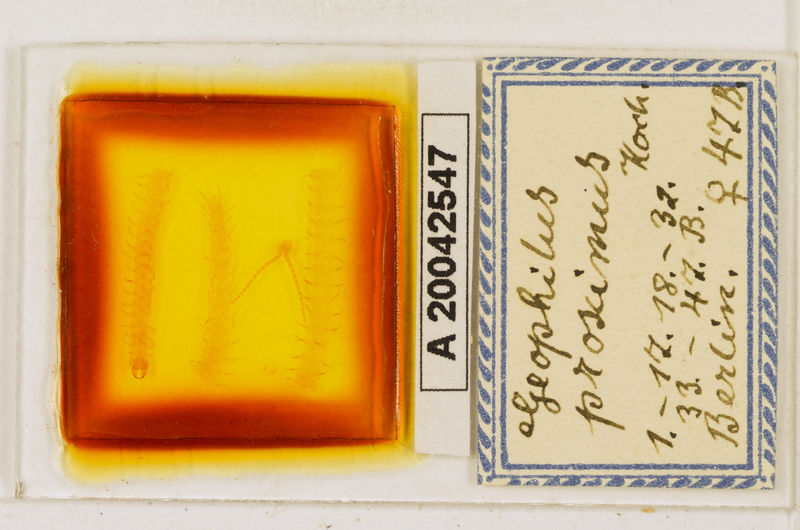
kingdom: Animalia
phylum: Arthropoda
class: Chilopoda
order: Geophilomorpha
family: Geophilidae
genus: Geophilus
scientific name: Geophilus proximus
